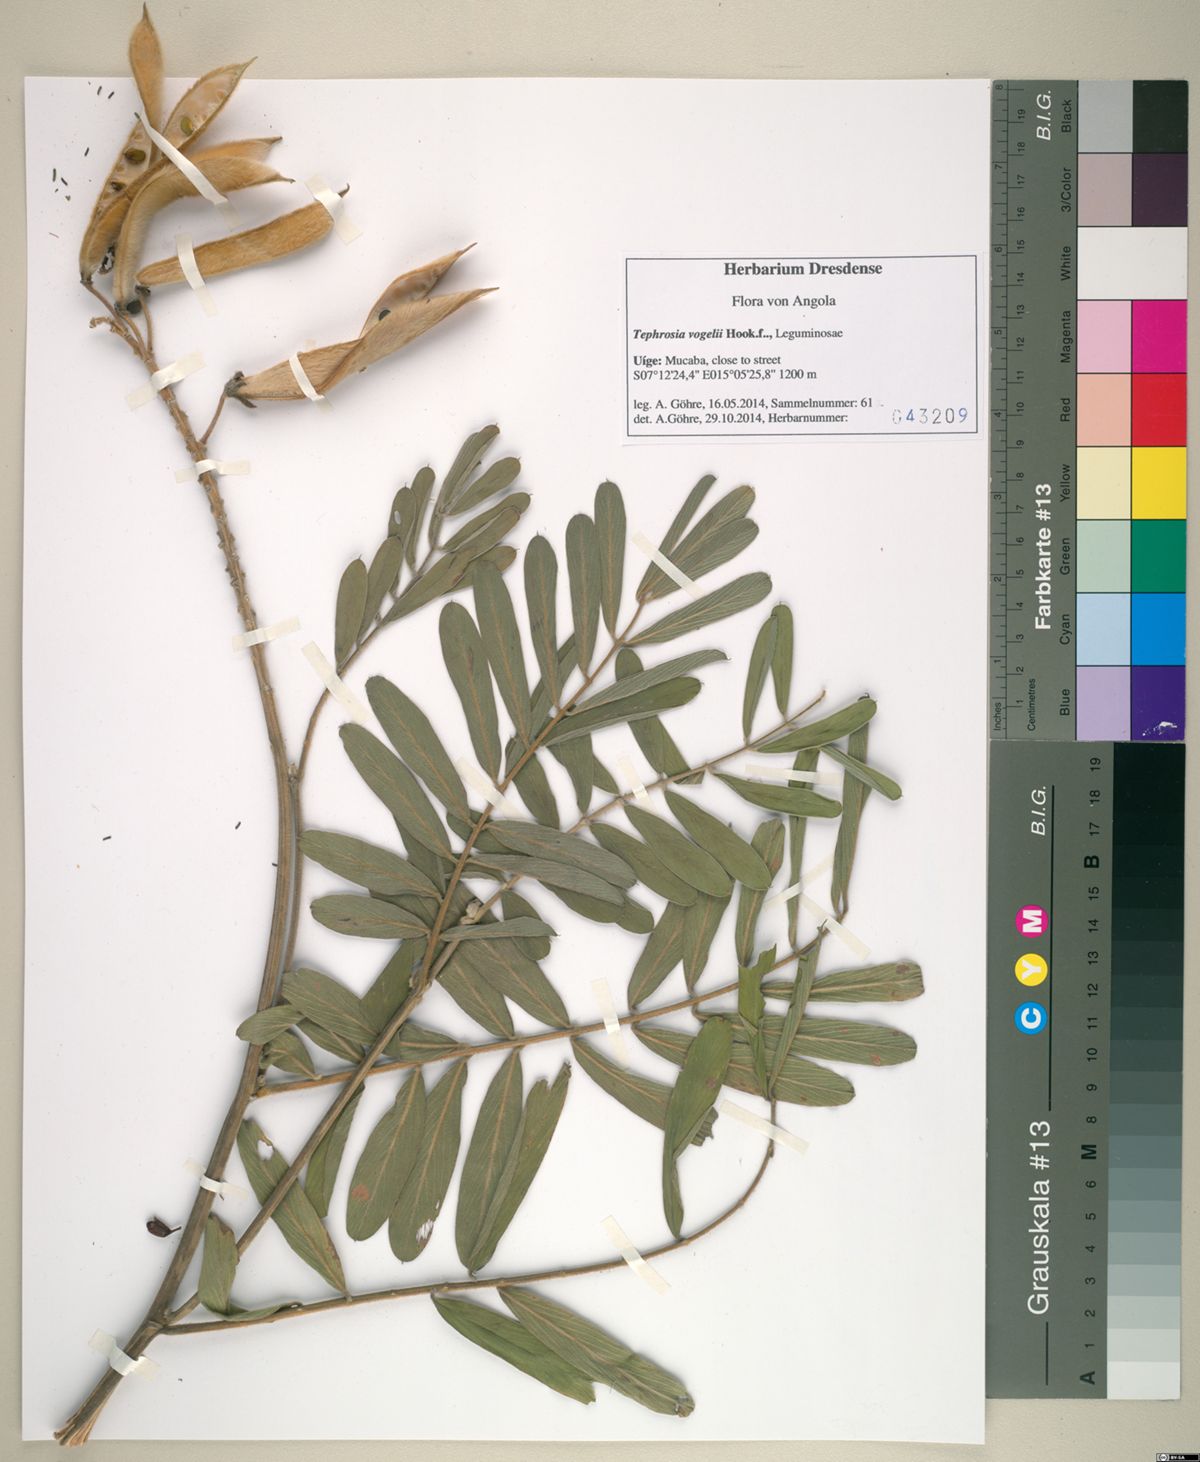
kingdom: Plantae
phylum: Tracheophyta
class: Magnoliopsida
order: Fabales
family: Fabaceae
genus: Tephrosia
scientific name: Tephrosia vogelii
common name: Vogel tephrosia
